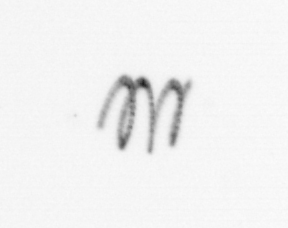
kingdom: Chromista
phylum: Ochrophyta
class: Bacillariophyceae
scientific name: Bacillariophyceae
